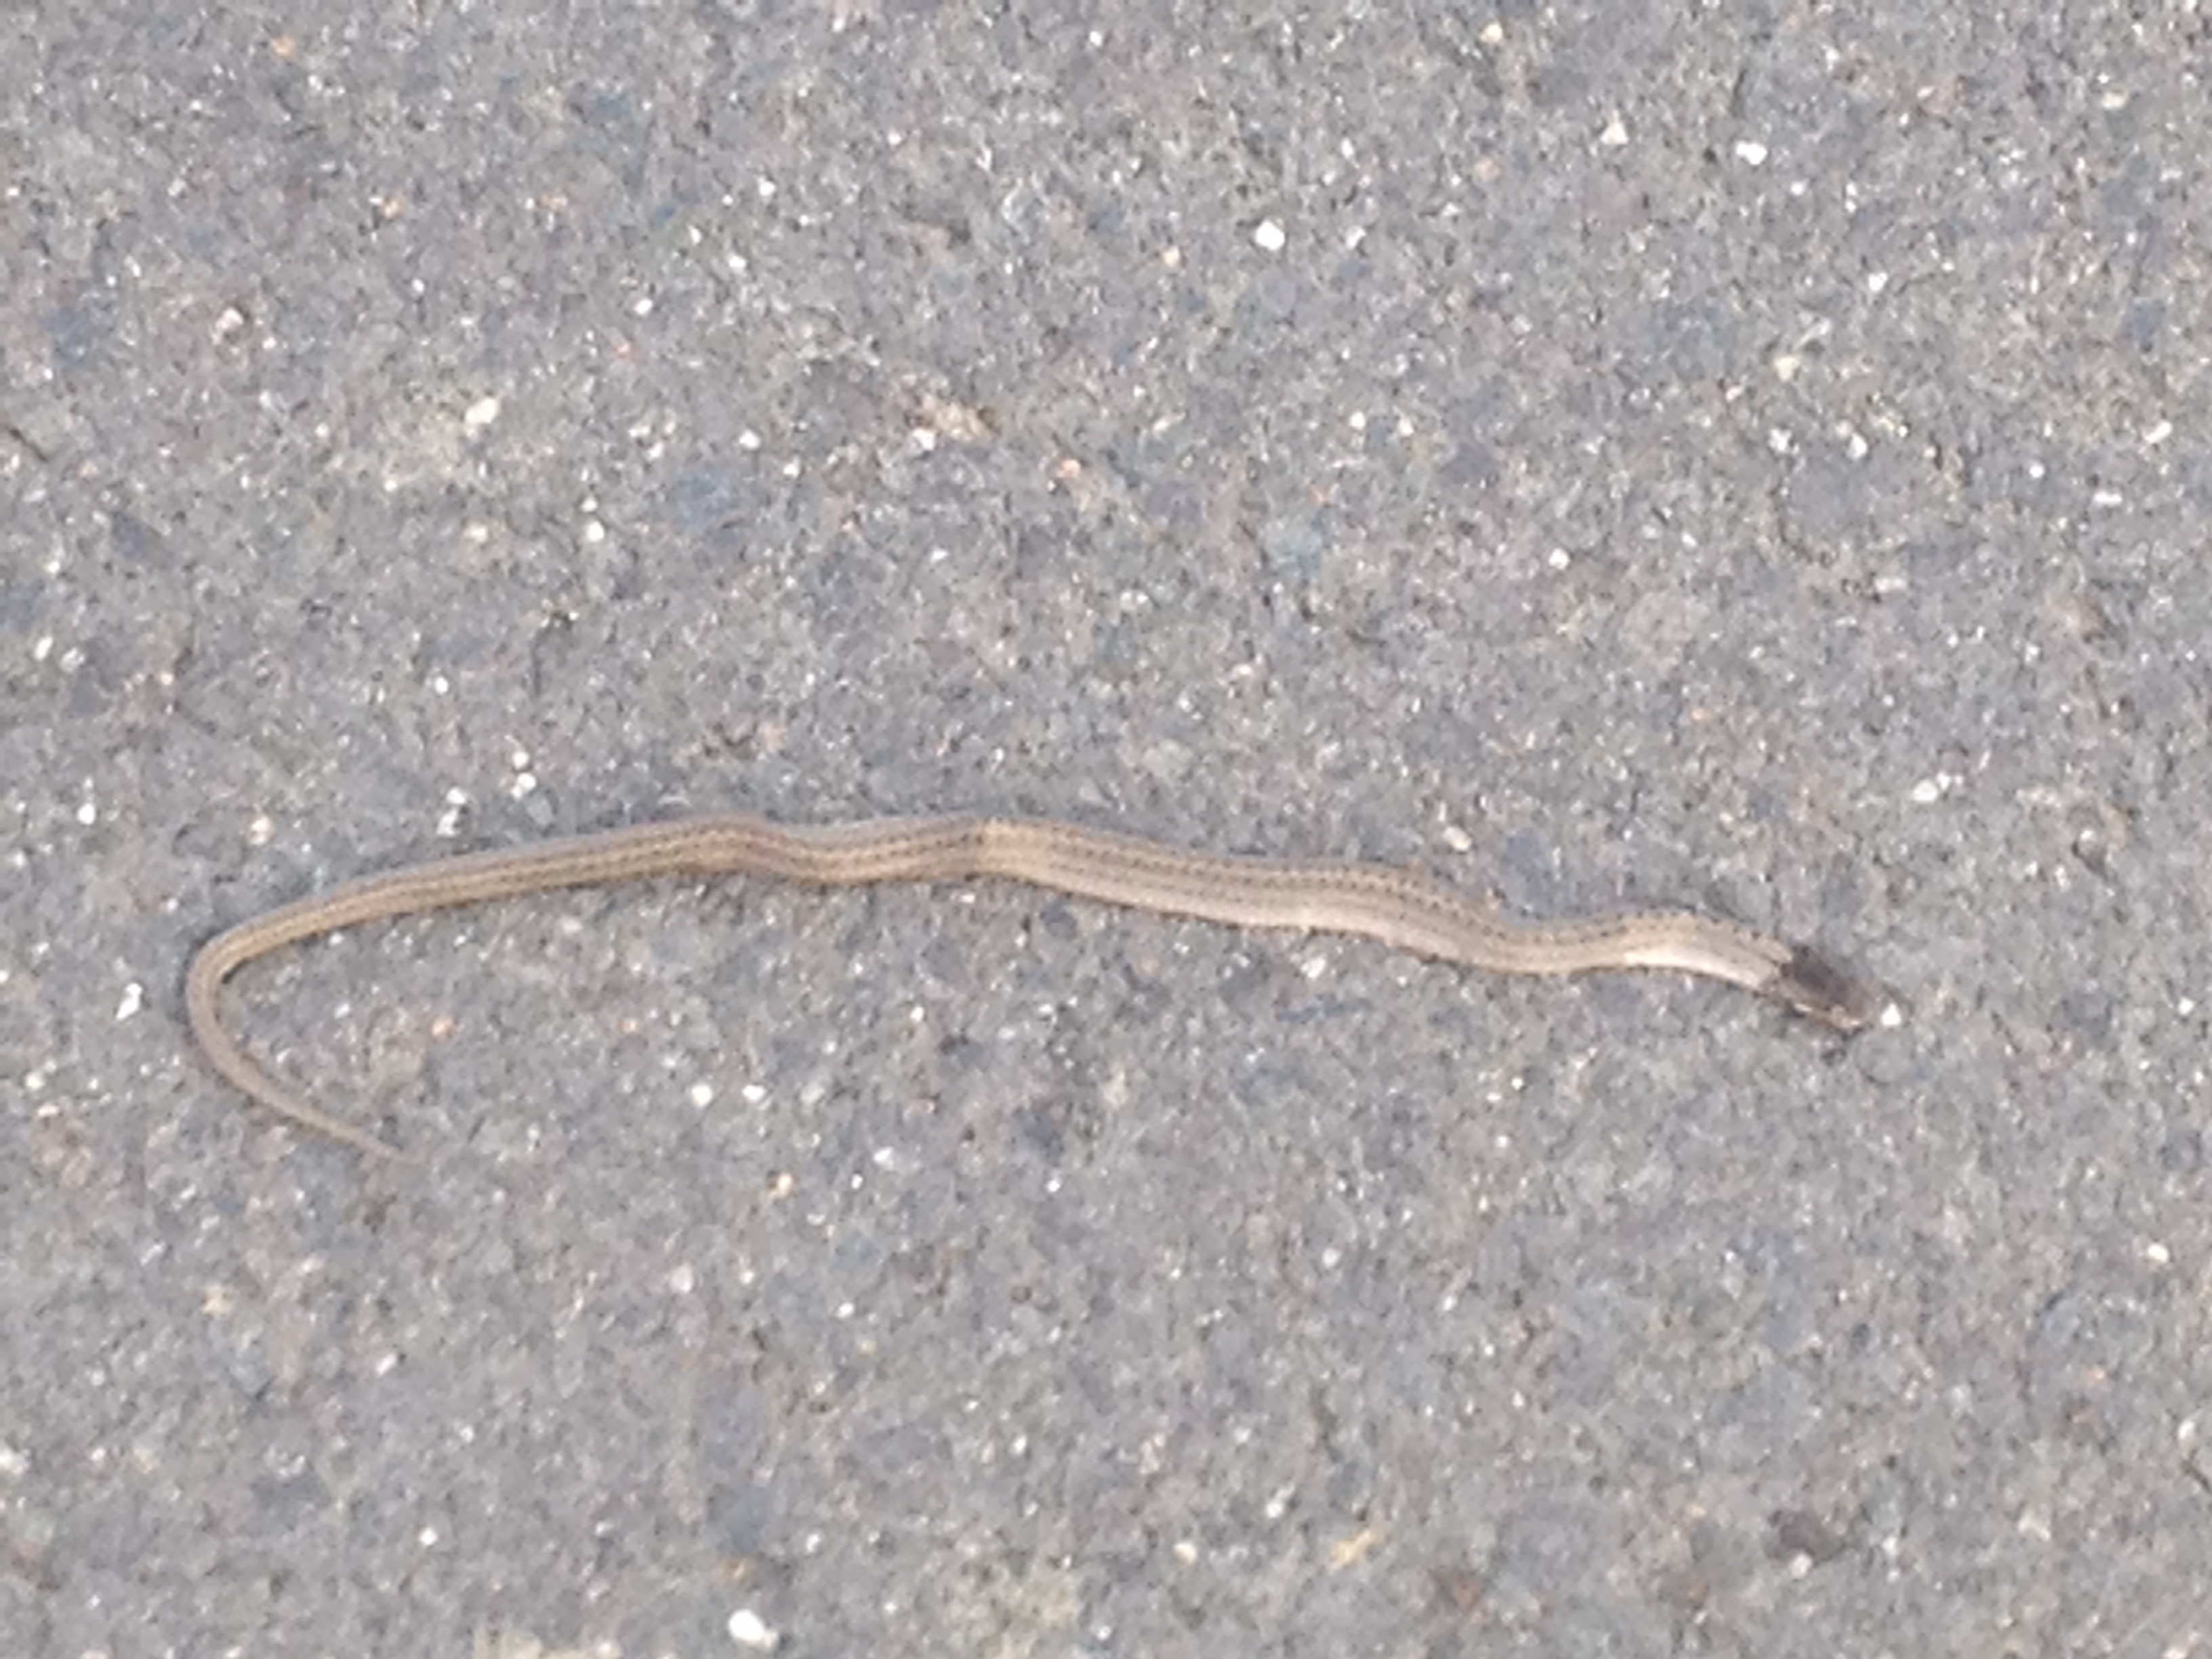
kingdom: Animalia
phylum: Chordata
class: Squamata
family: Colubridae
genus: Coronella
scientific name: Coronella austriaca
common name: Smooth snake
